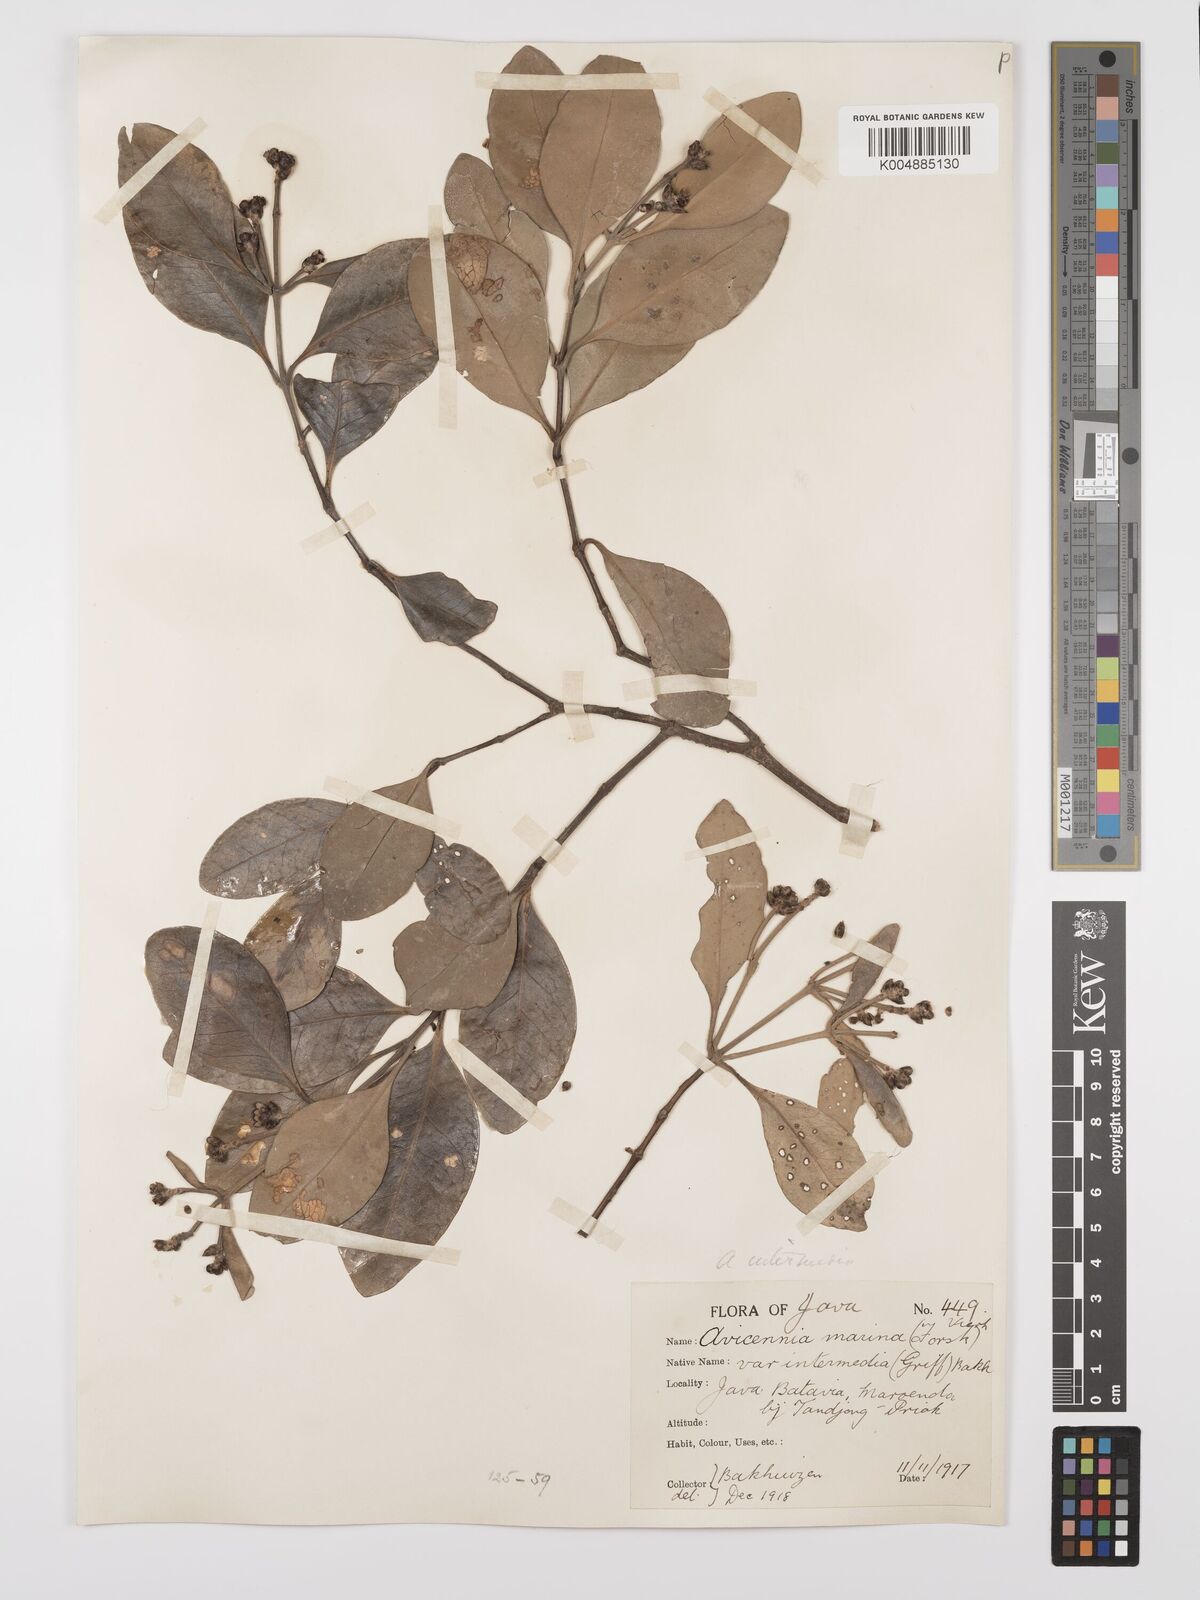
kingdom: Plantae
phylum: Tracheophyta
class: Magnoliopsida
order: Lamiales
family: Acanthaceae
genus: Avicennia
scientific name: Avicennia marina
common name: Gray mangrove
